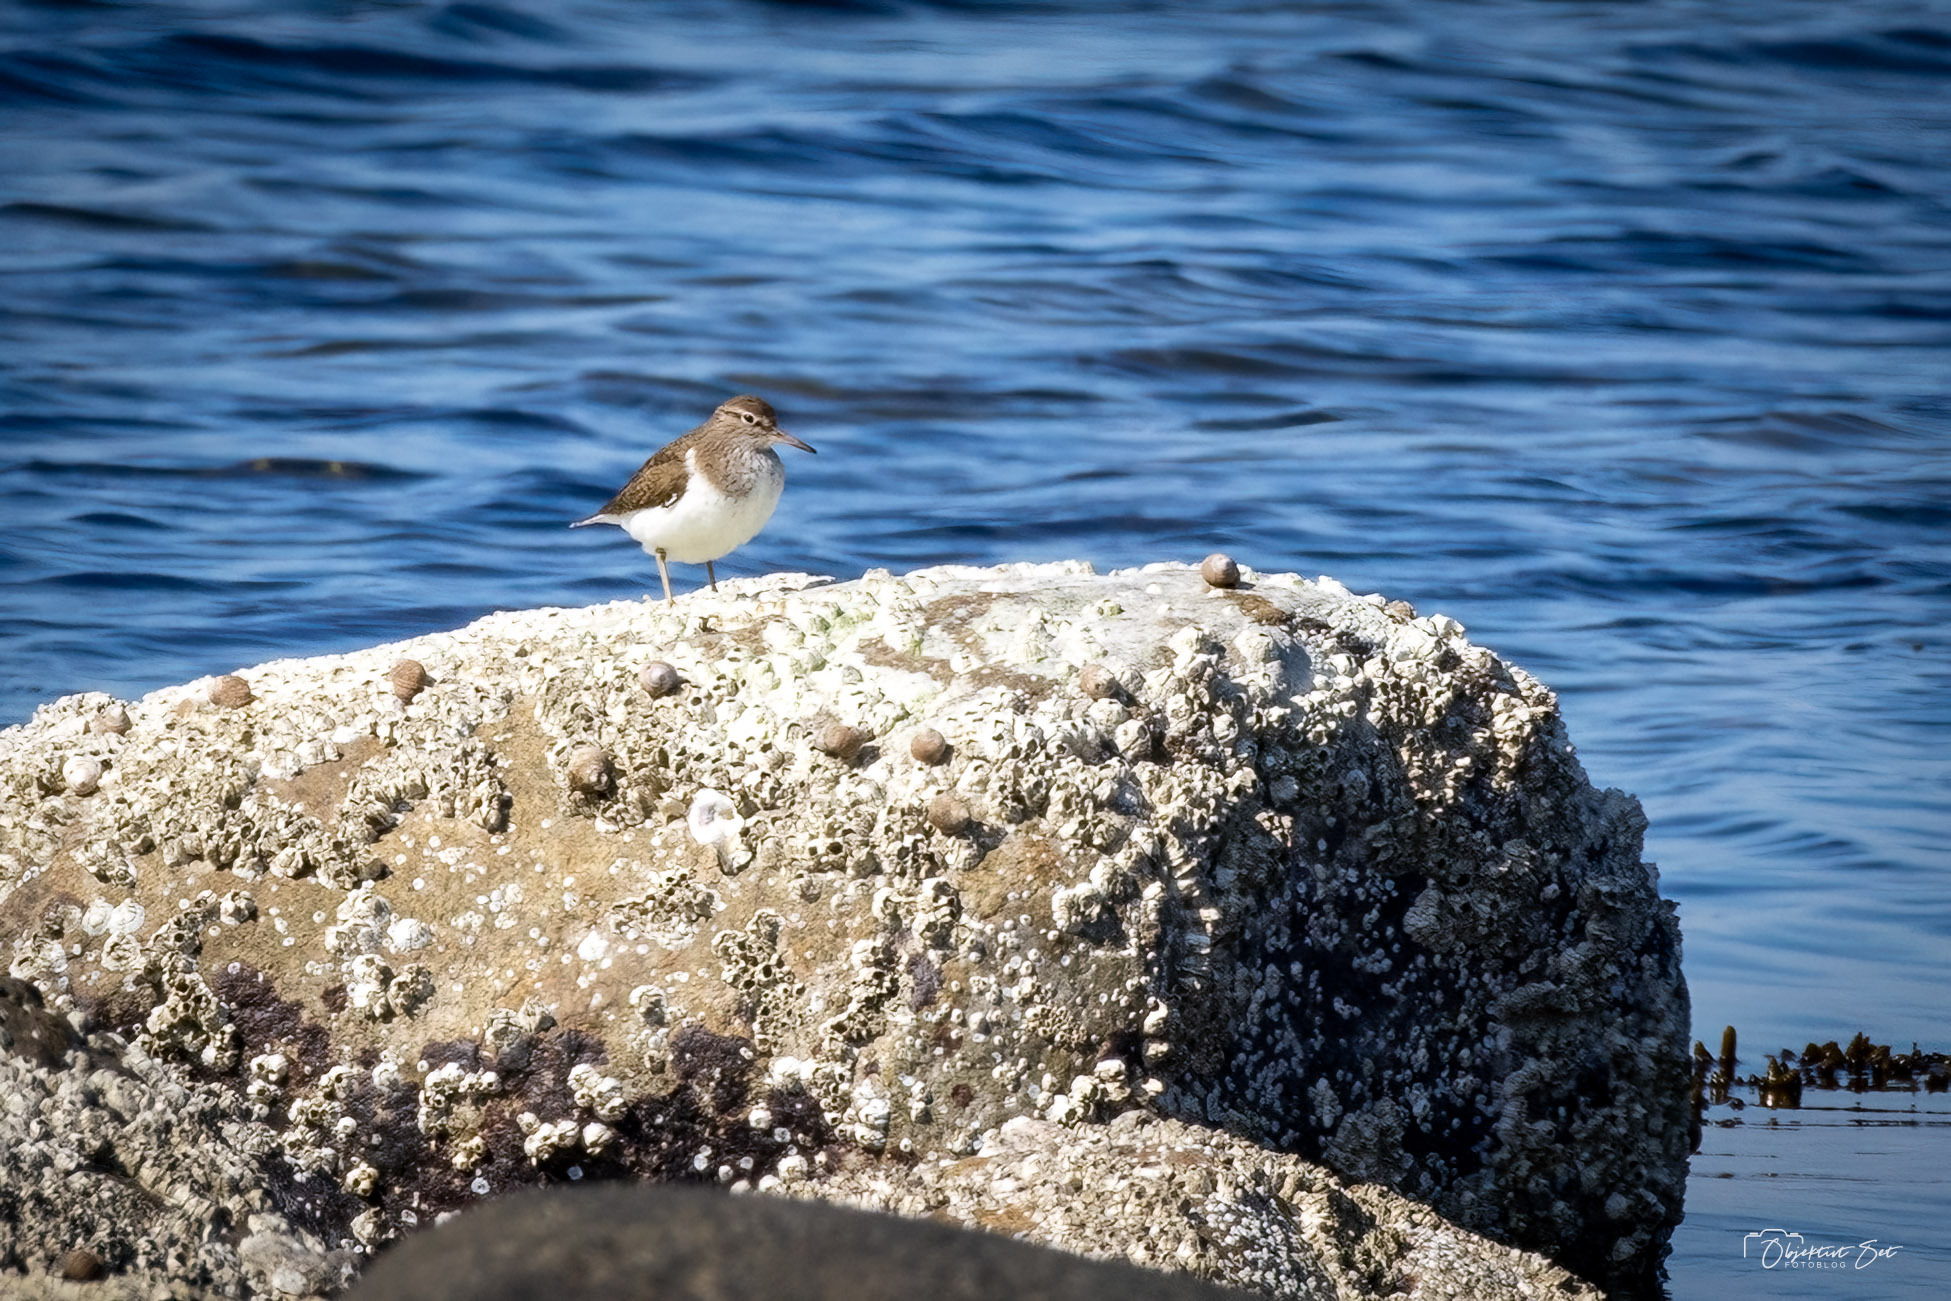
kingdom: Animalia
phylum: Chordata
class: Aves
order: Charadriiformes
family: Scolopacidae
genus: Actitis
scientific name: Actitis hypoleucos
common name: Mudderklire
